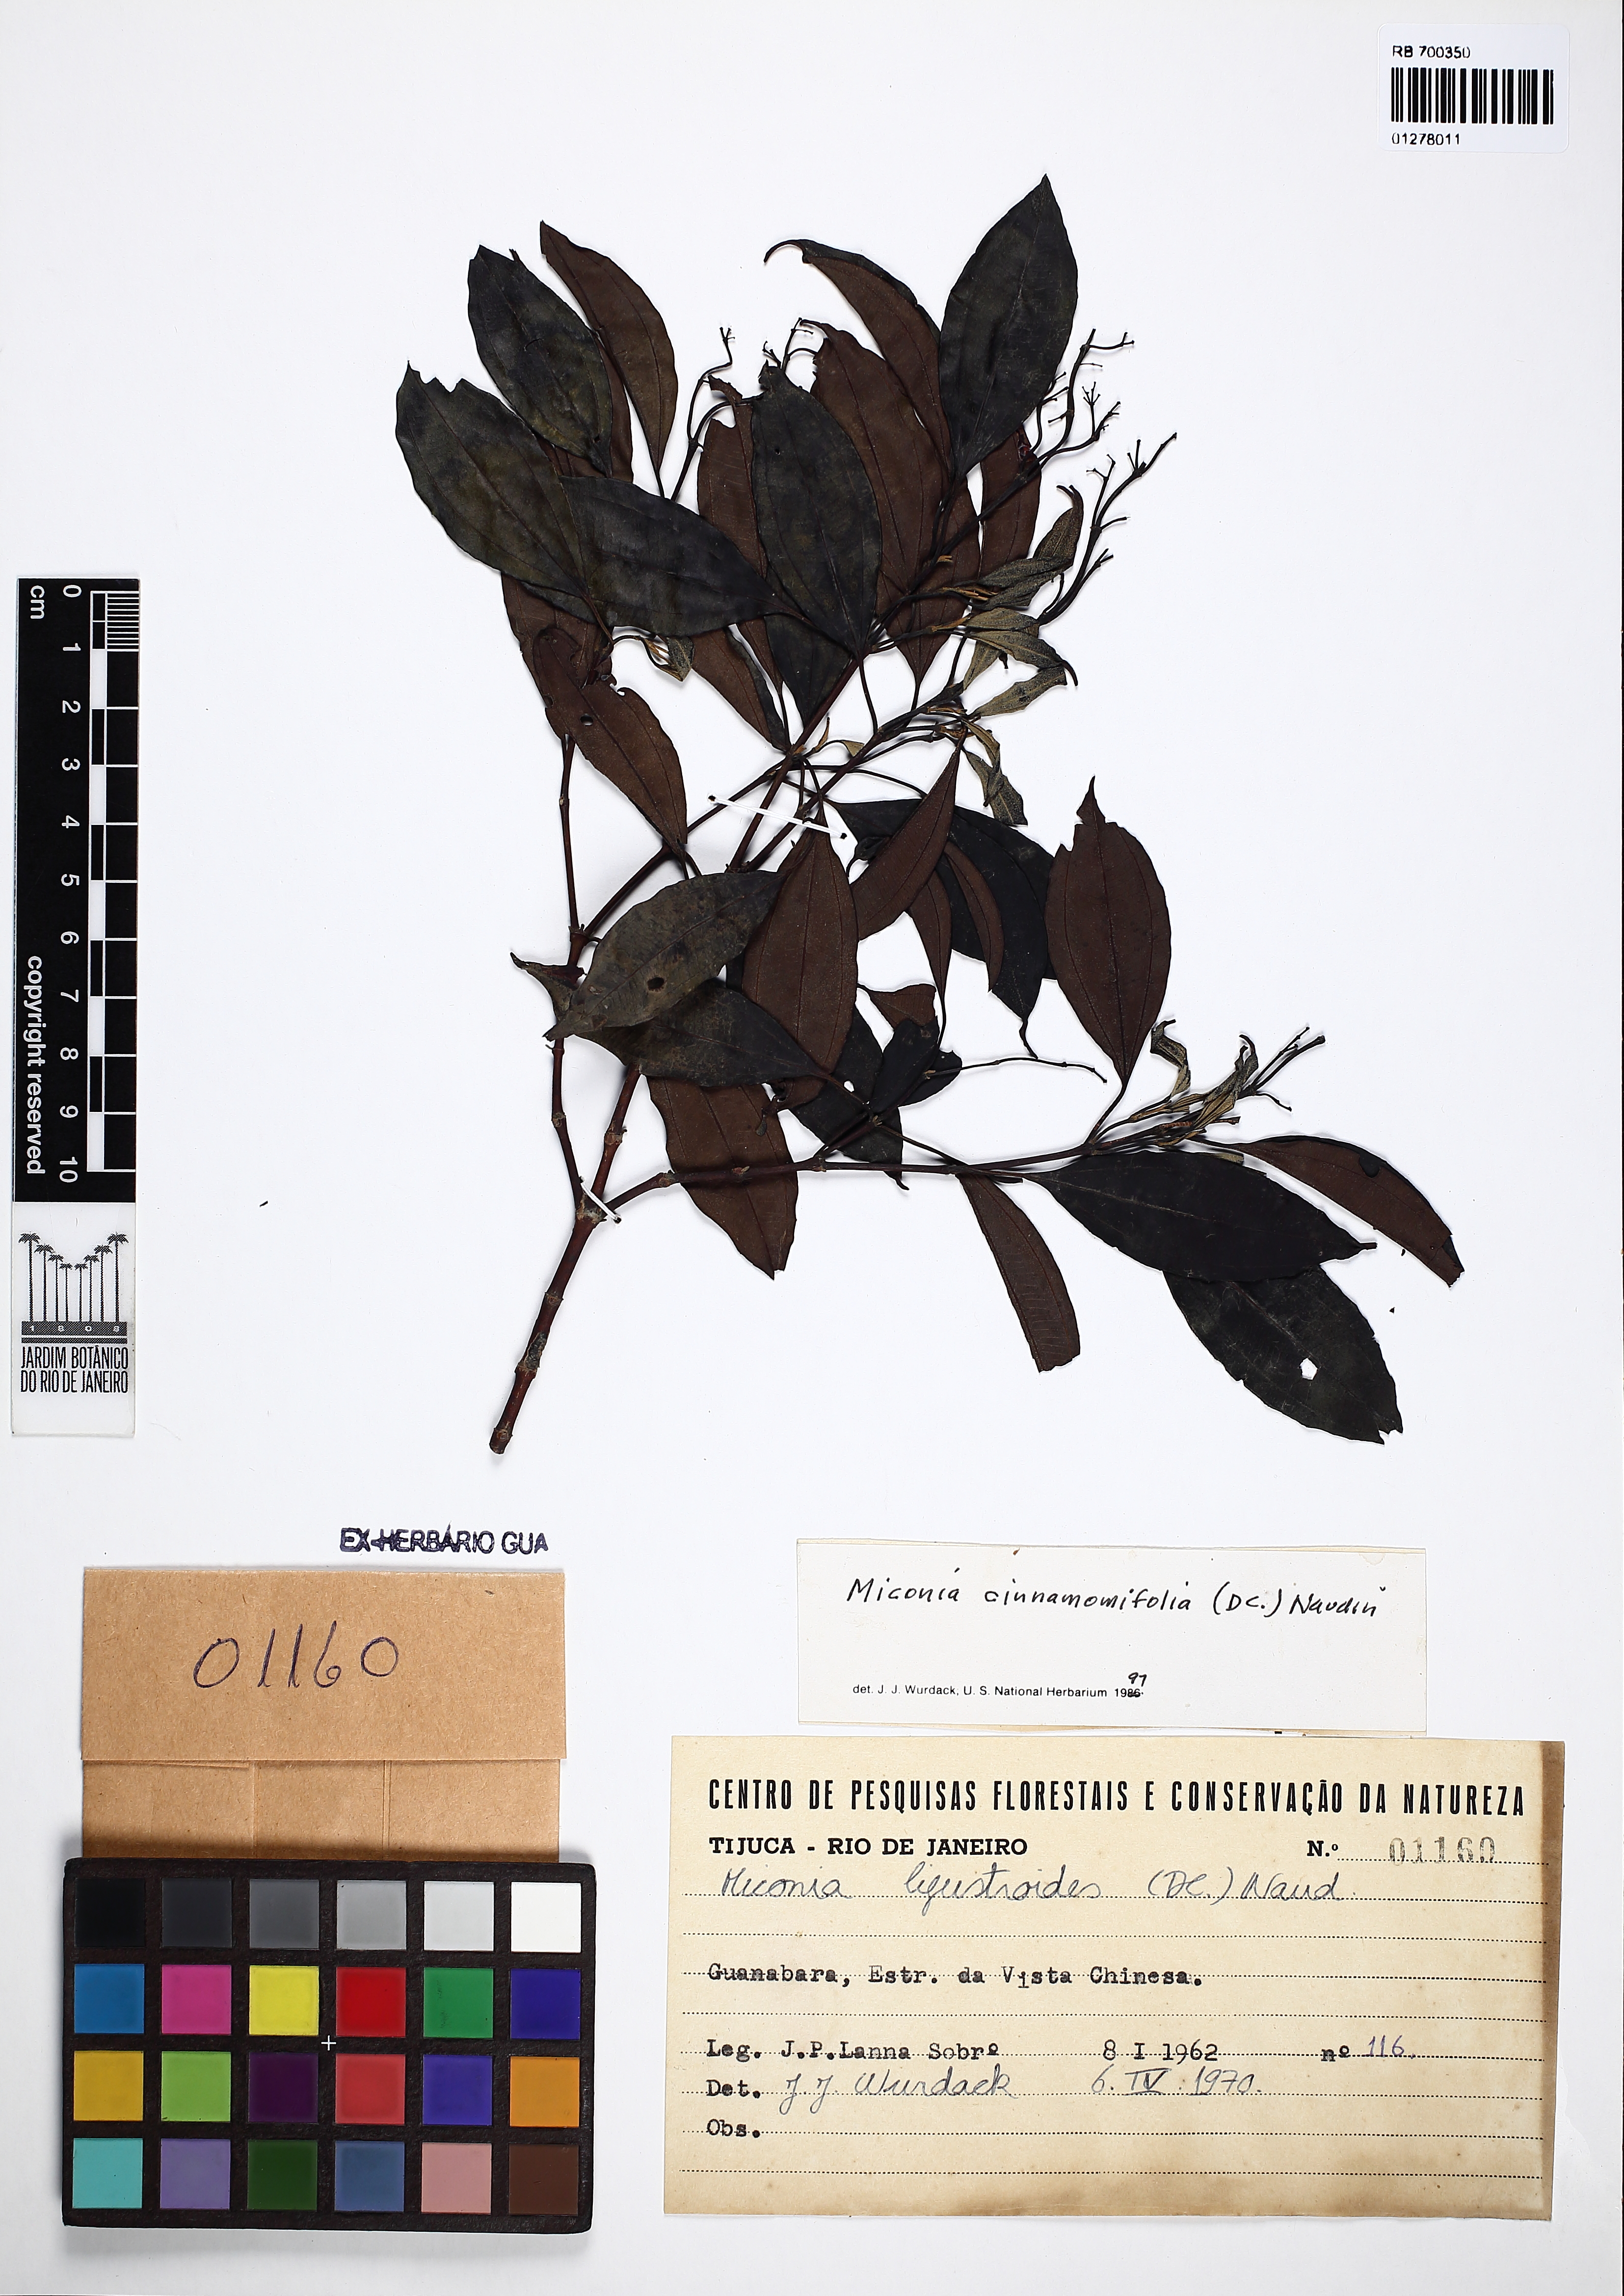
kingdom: Plantae
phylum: Tracheophyta
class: Magnoliopsida
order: Myrtales
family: Melastomataceae
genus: Miconia
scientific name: Miconia cinnamomifolia
